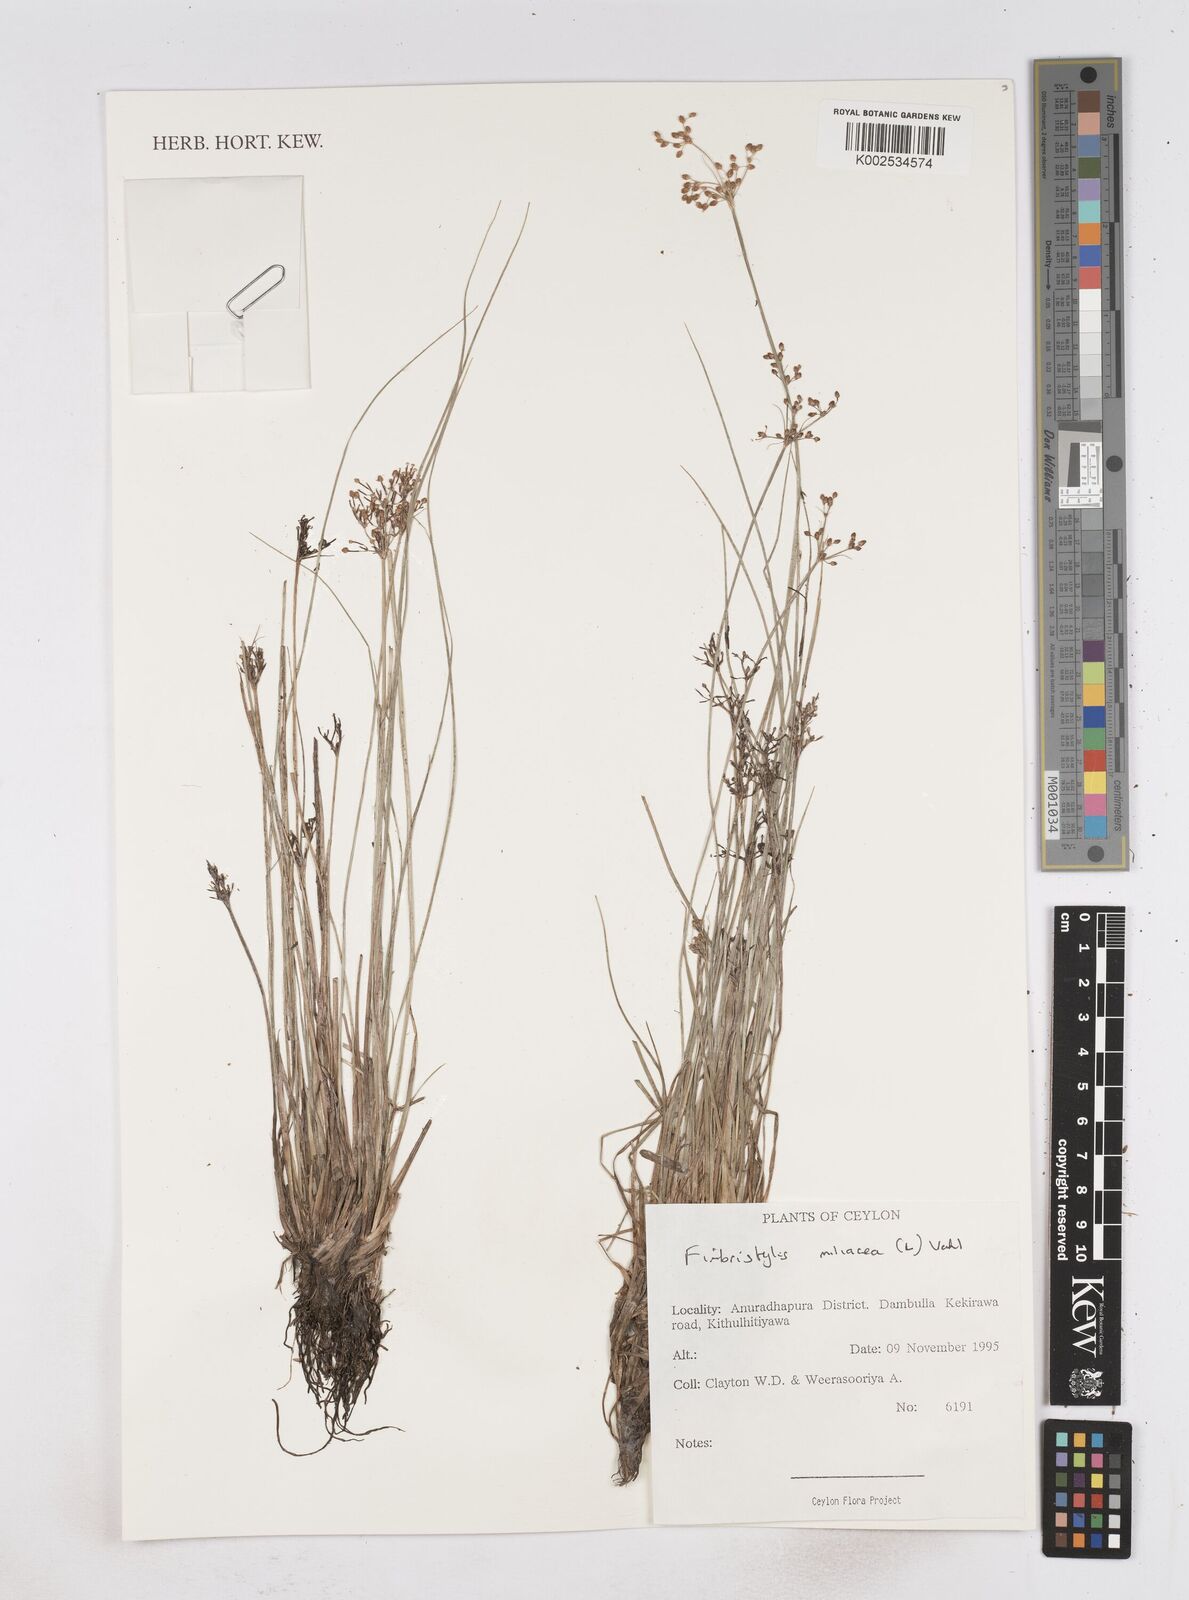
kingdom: Plantae
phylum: Tracheophyta
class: Liliopsida
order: Poales
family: Cyperaceae
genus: Fimbristylis
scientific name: Fimbristylis quinquangularis
